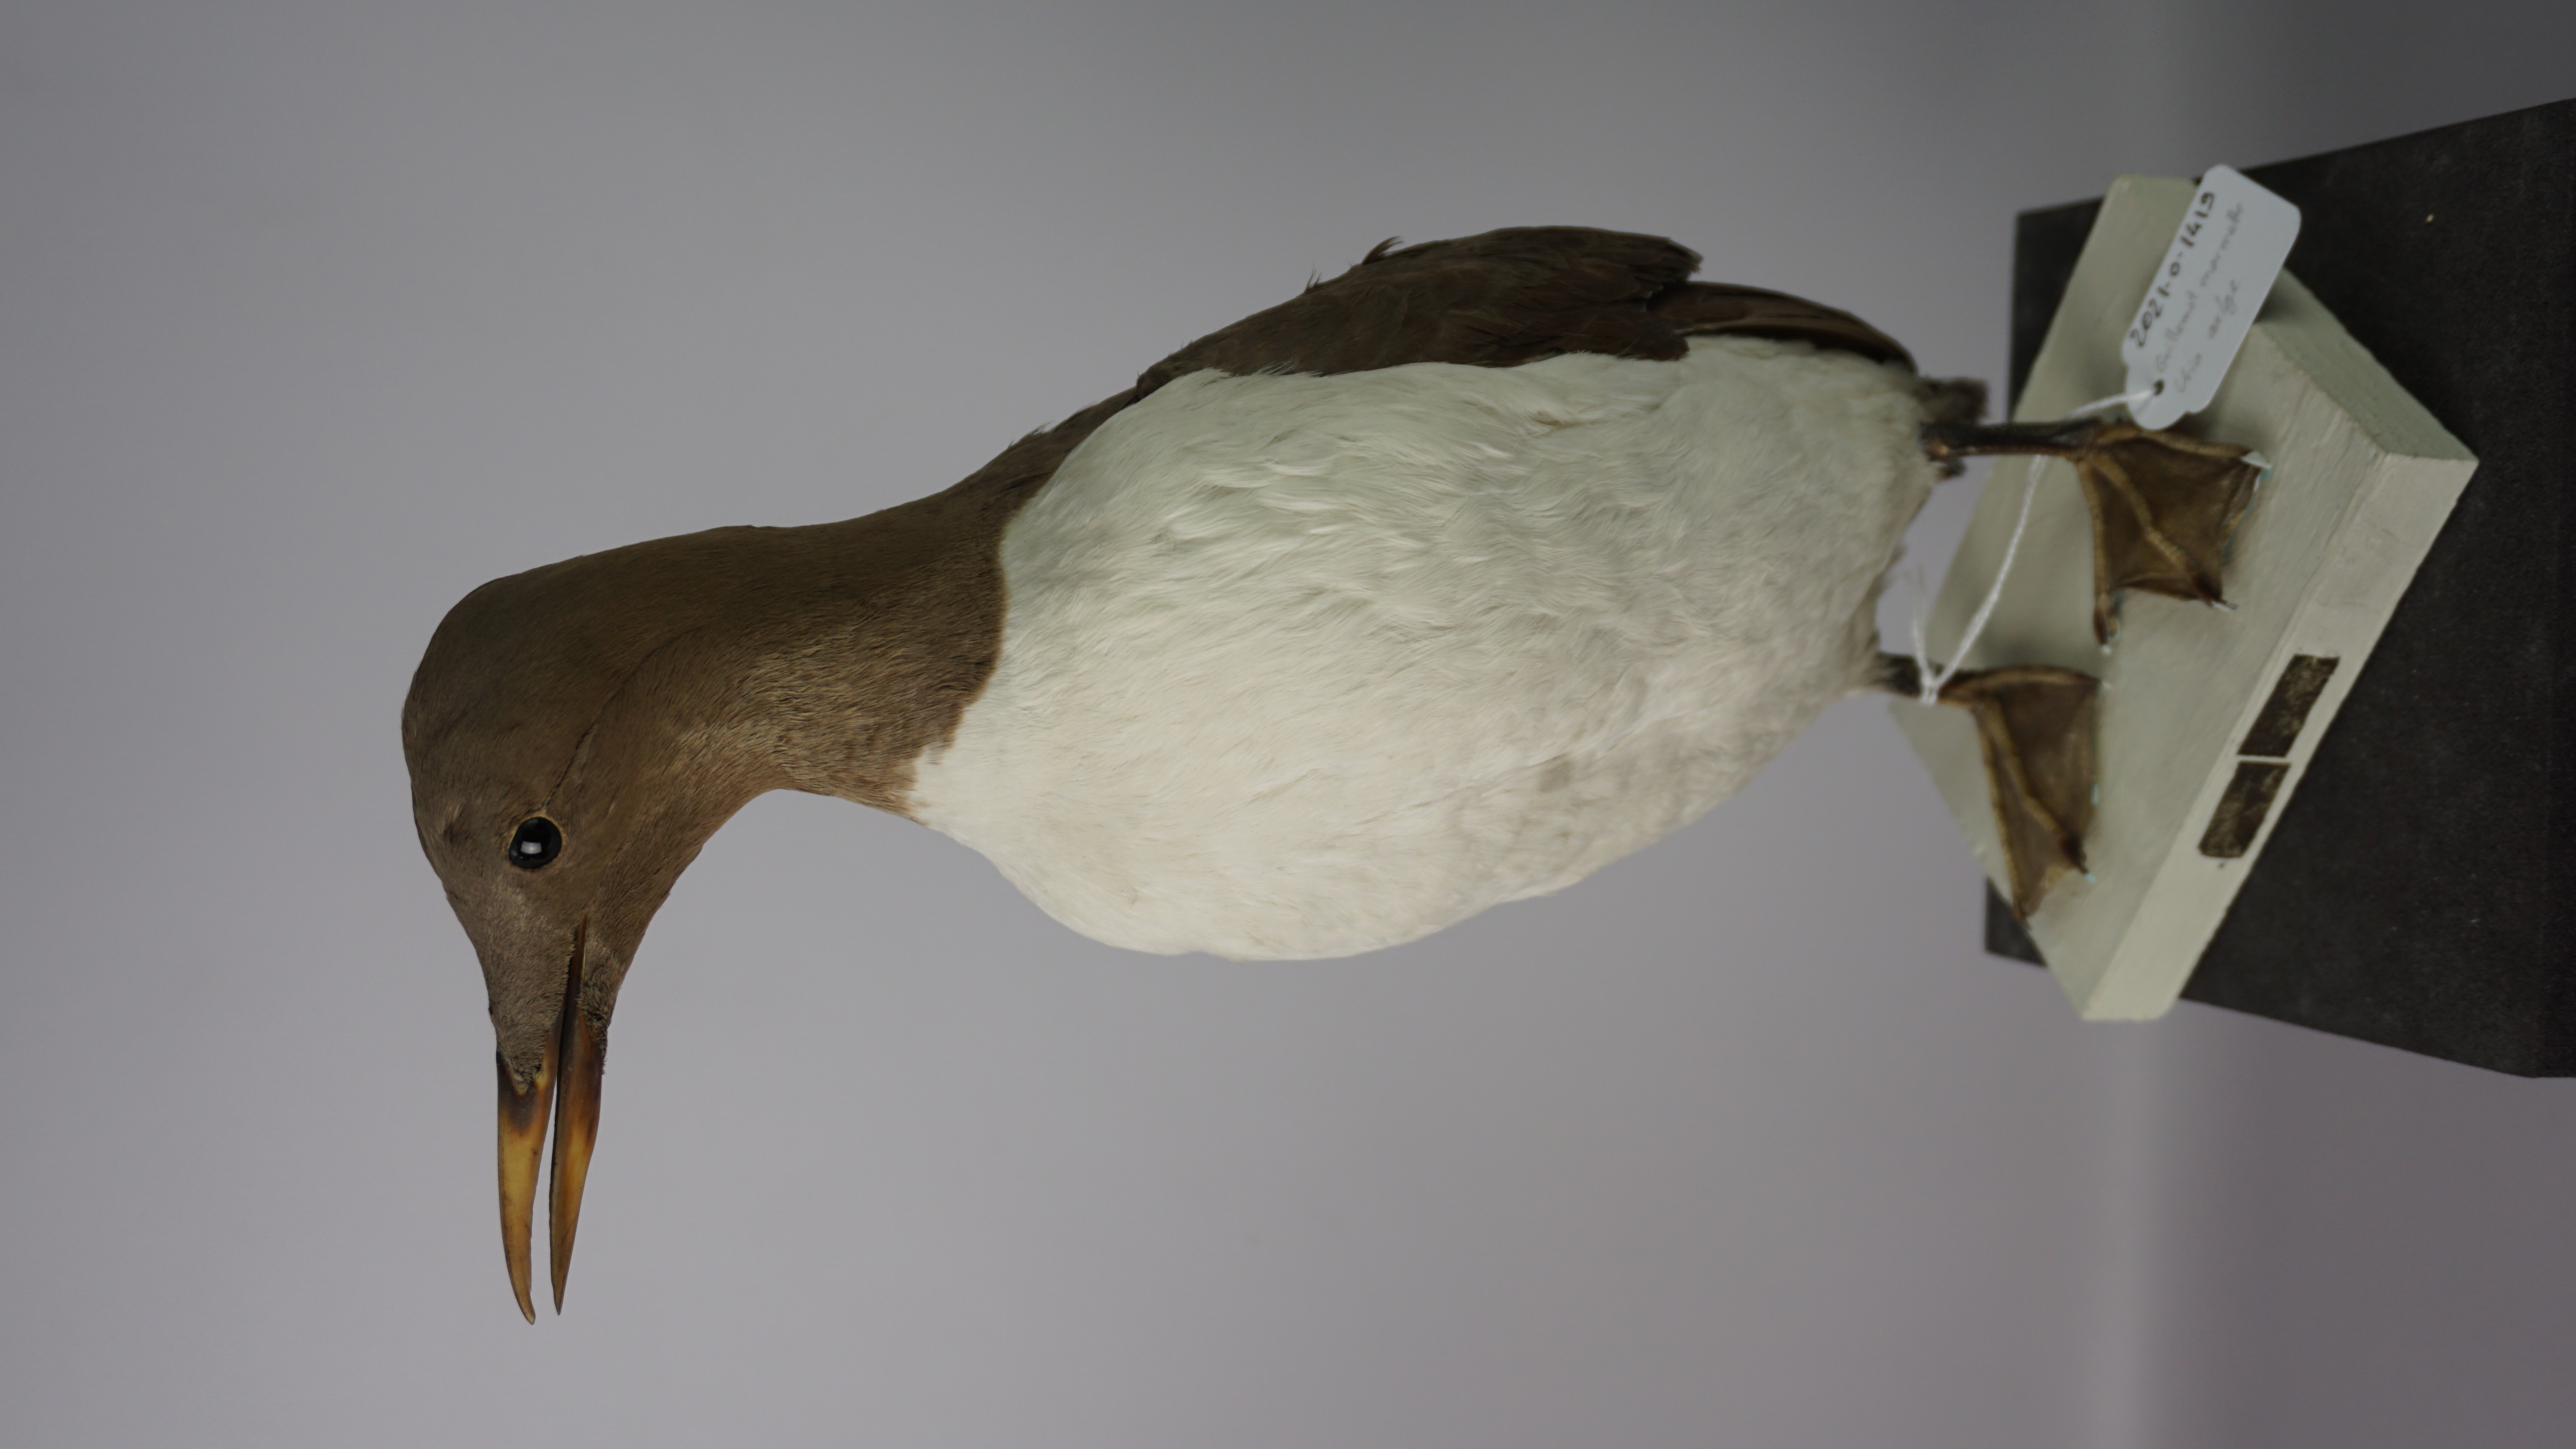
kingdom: Animalia
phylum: Chordata
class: Aves
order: Charadriiformes
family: Alcidae
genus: Uria
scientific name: Uria aalge
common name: Common murre
